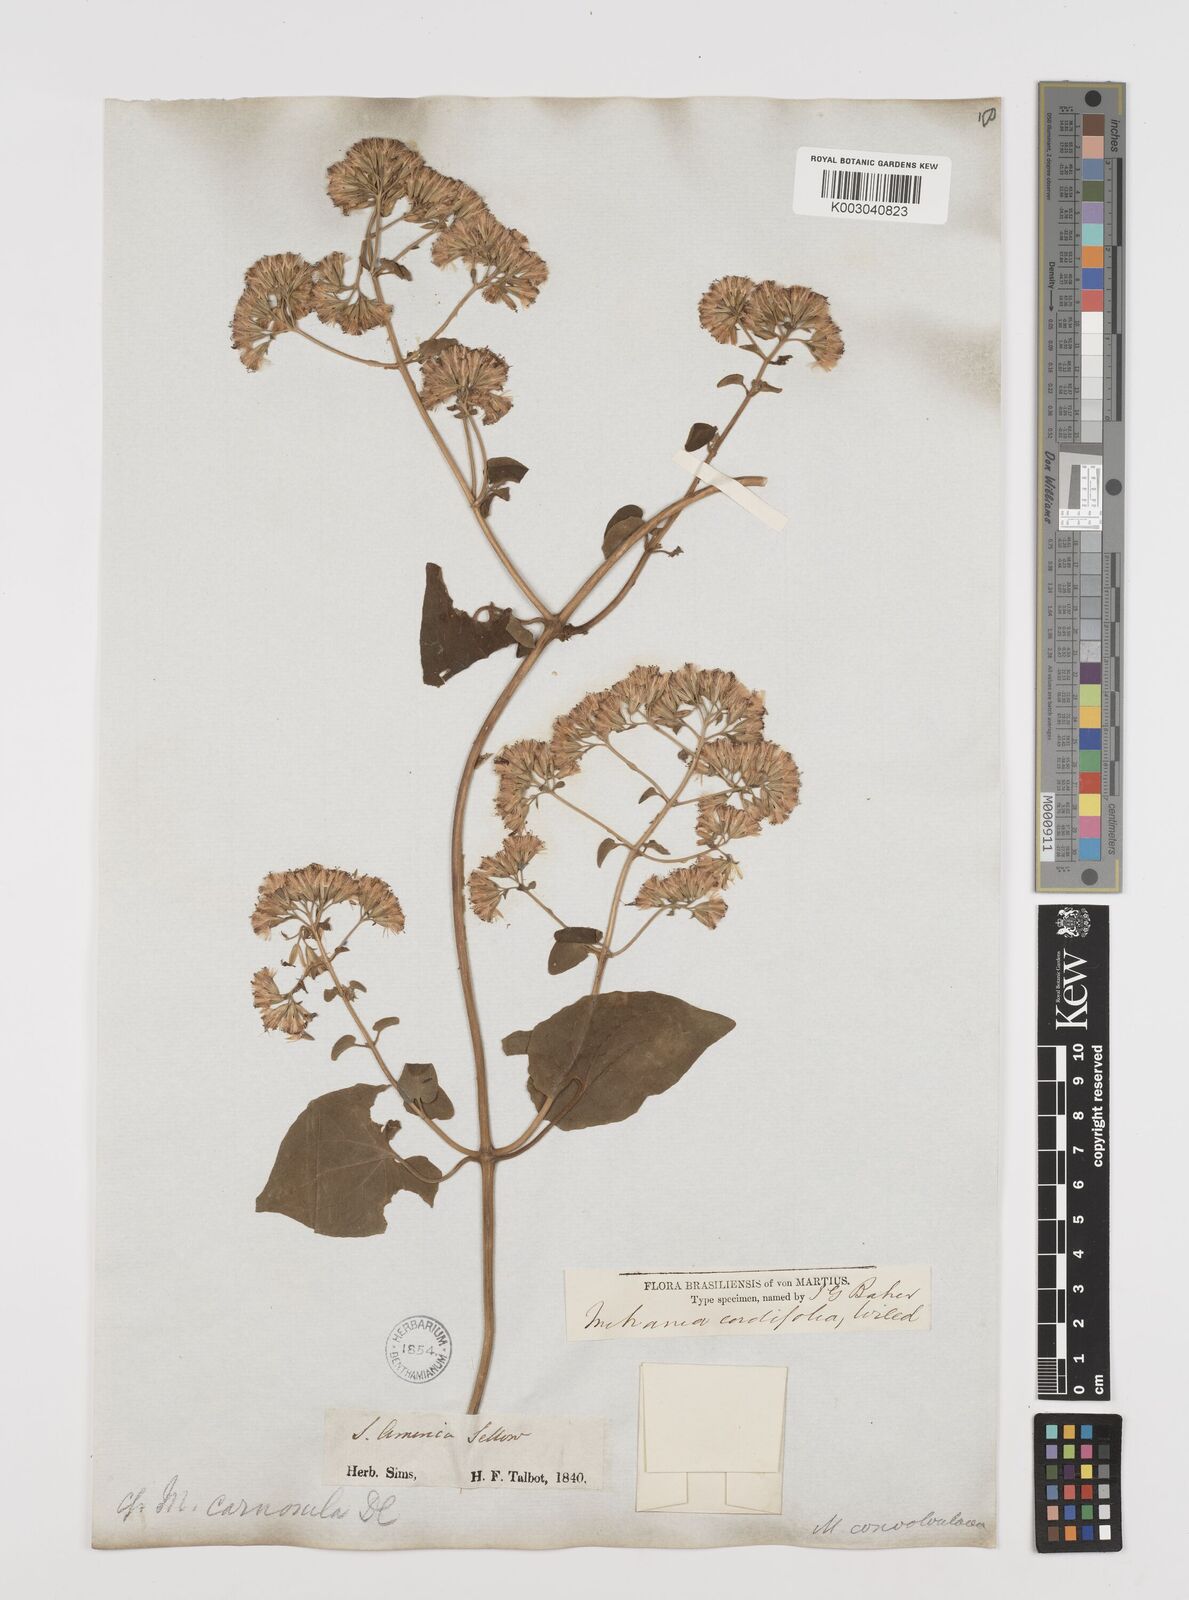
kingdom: Plantae
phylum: Tracheophyta
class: Magnoliopsida
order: Asterales
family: Asteraceae
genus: Mikania
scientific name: Mikania cordifolia
